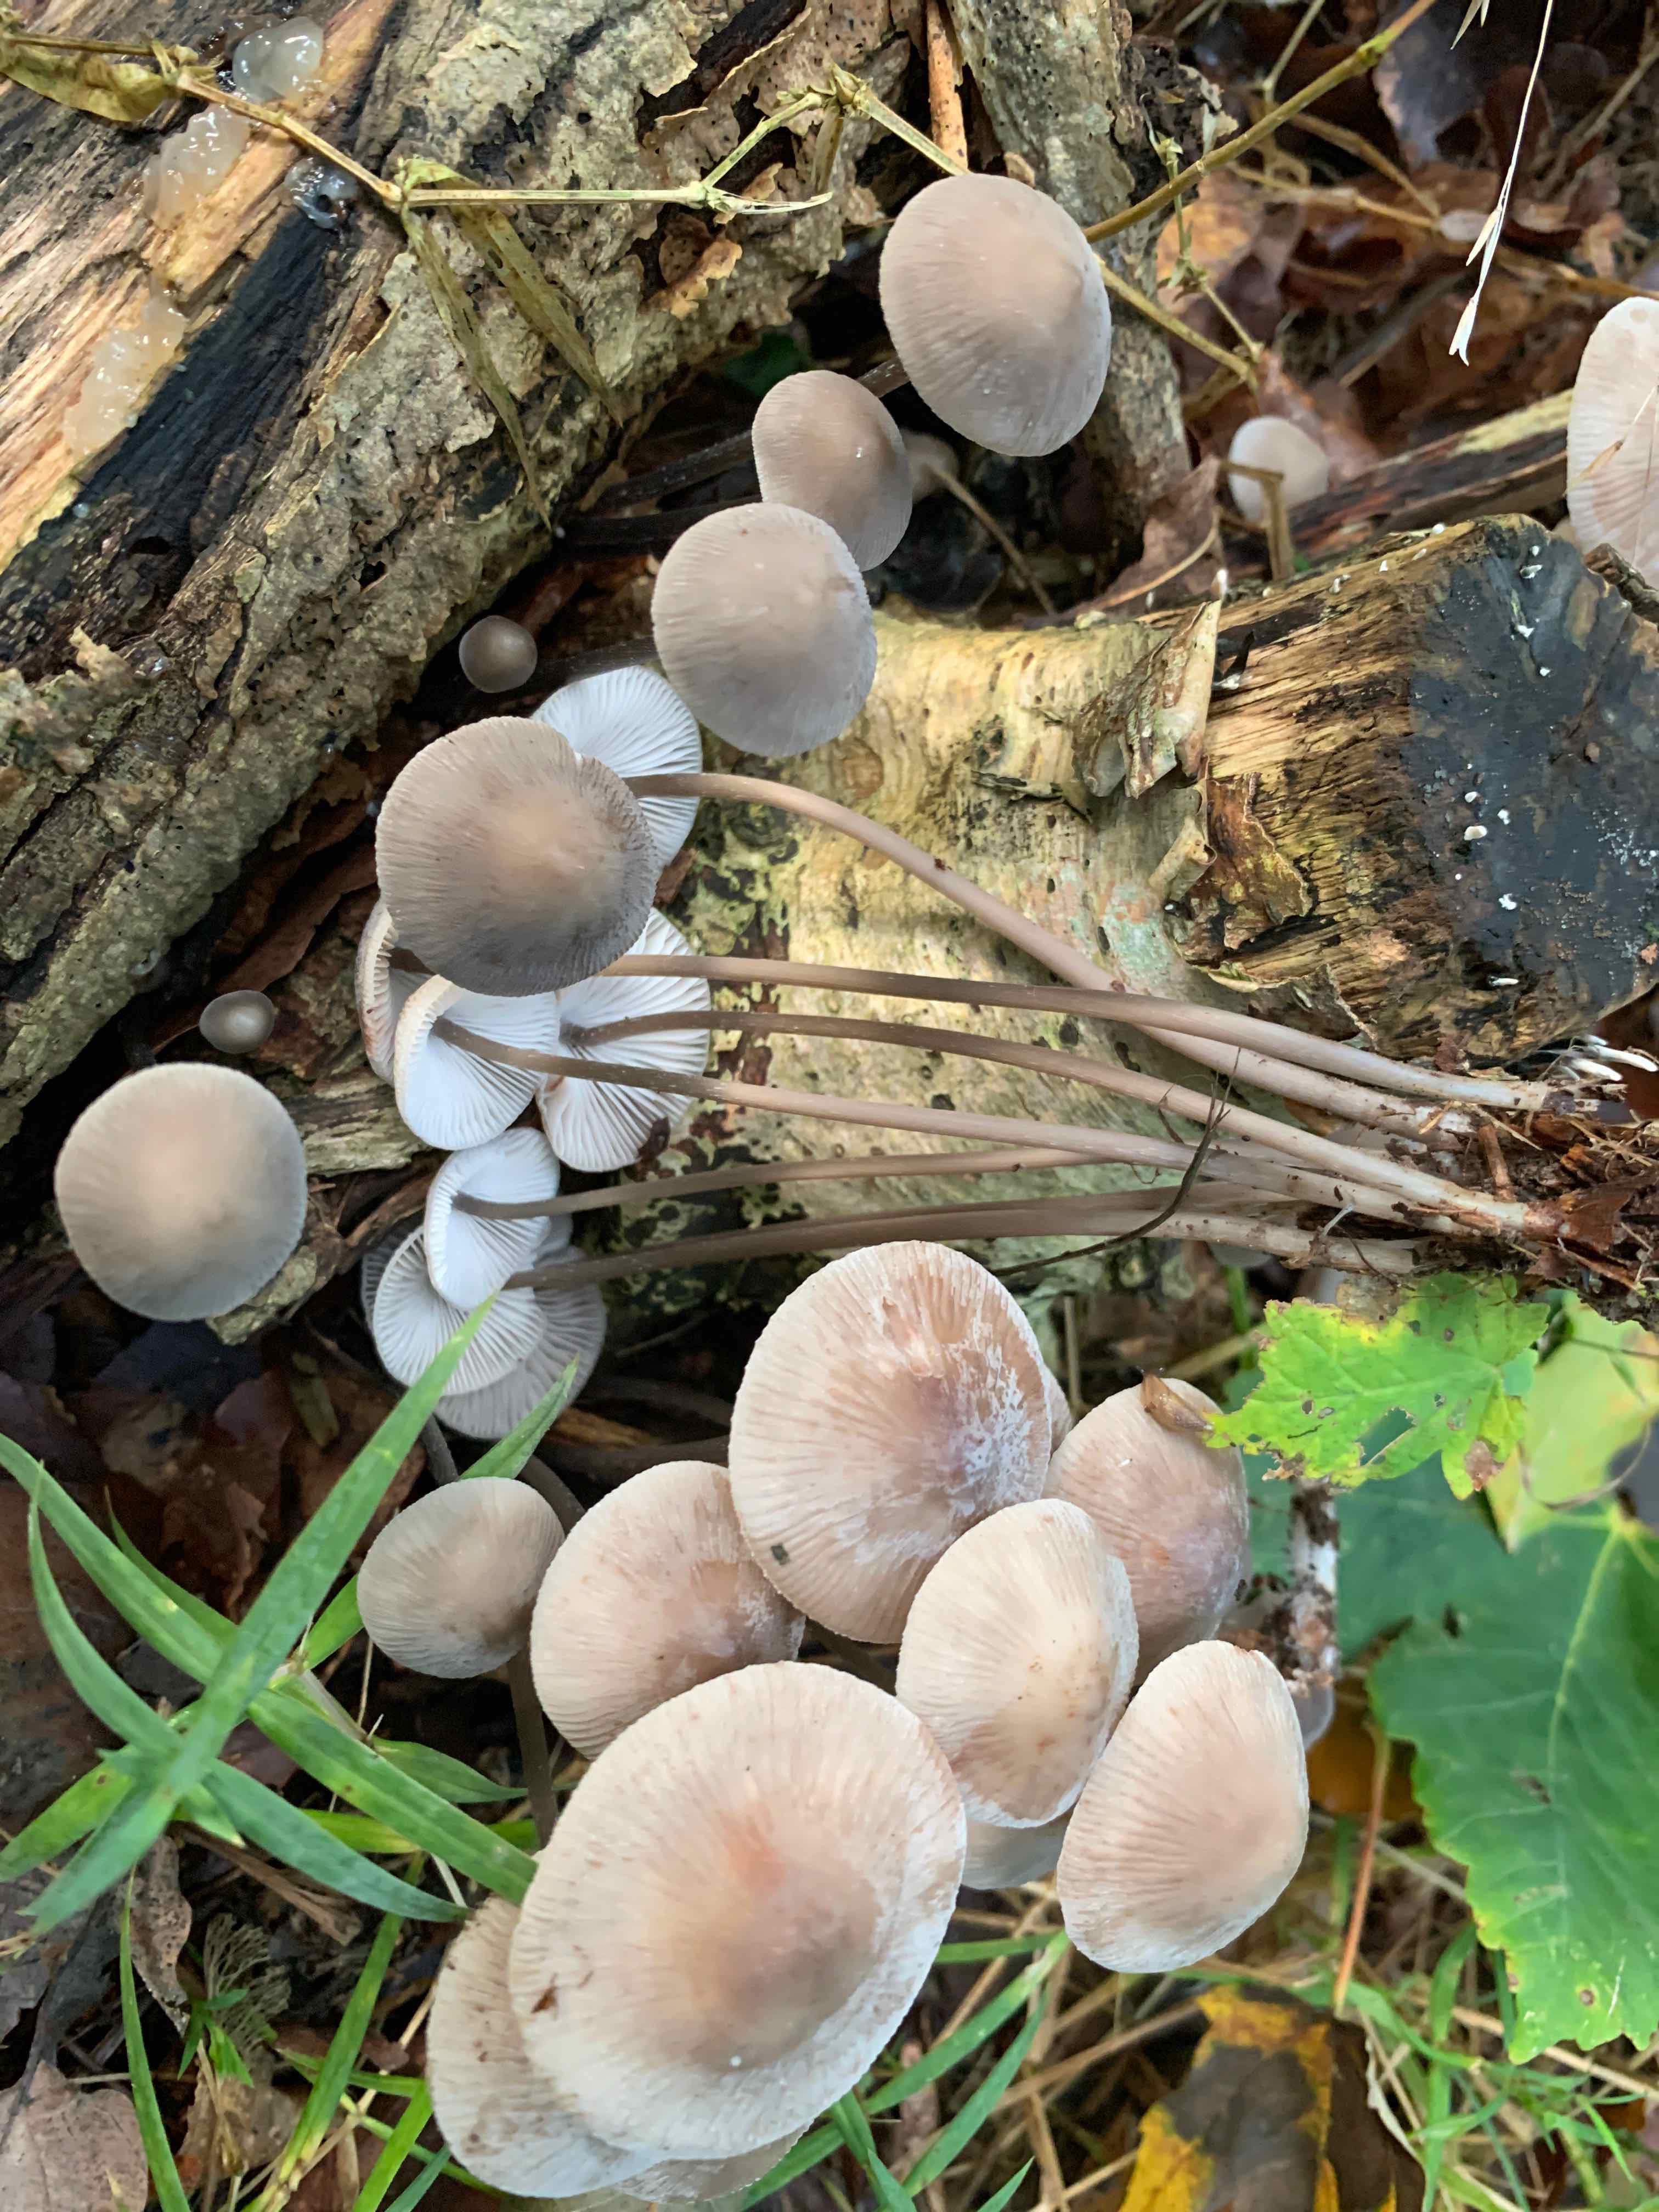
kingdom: Fungi
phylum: Basidiomycota
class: Agaricomycetes
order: Agaricales
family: Mycenaceae
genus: Mycena
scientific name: Mycena polygramma
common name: mangestribet huesvamp
